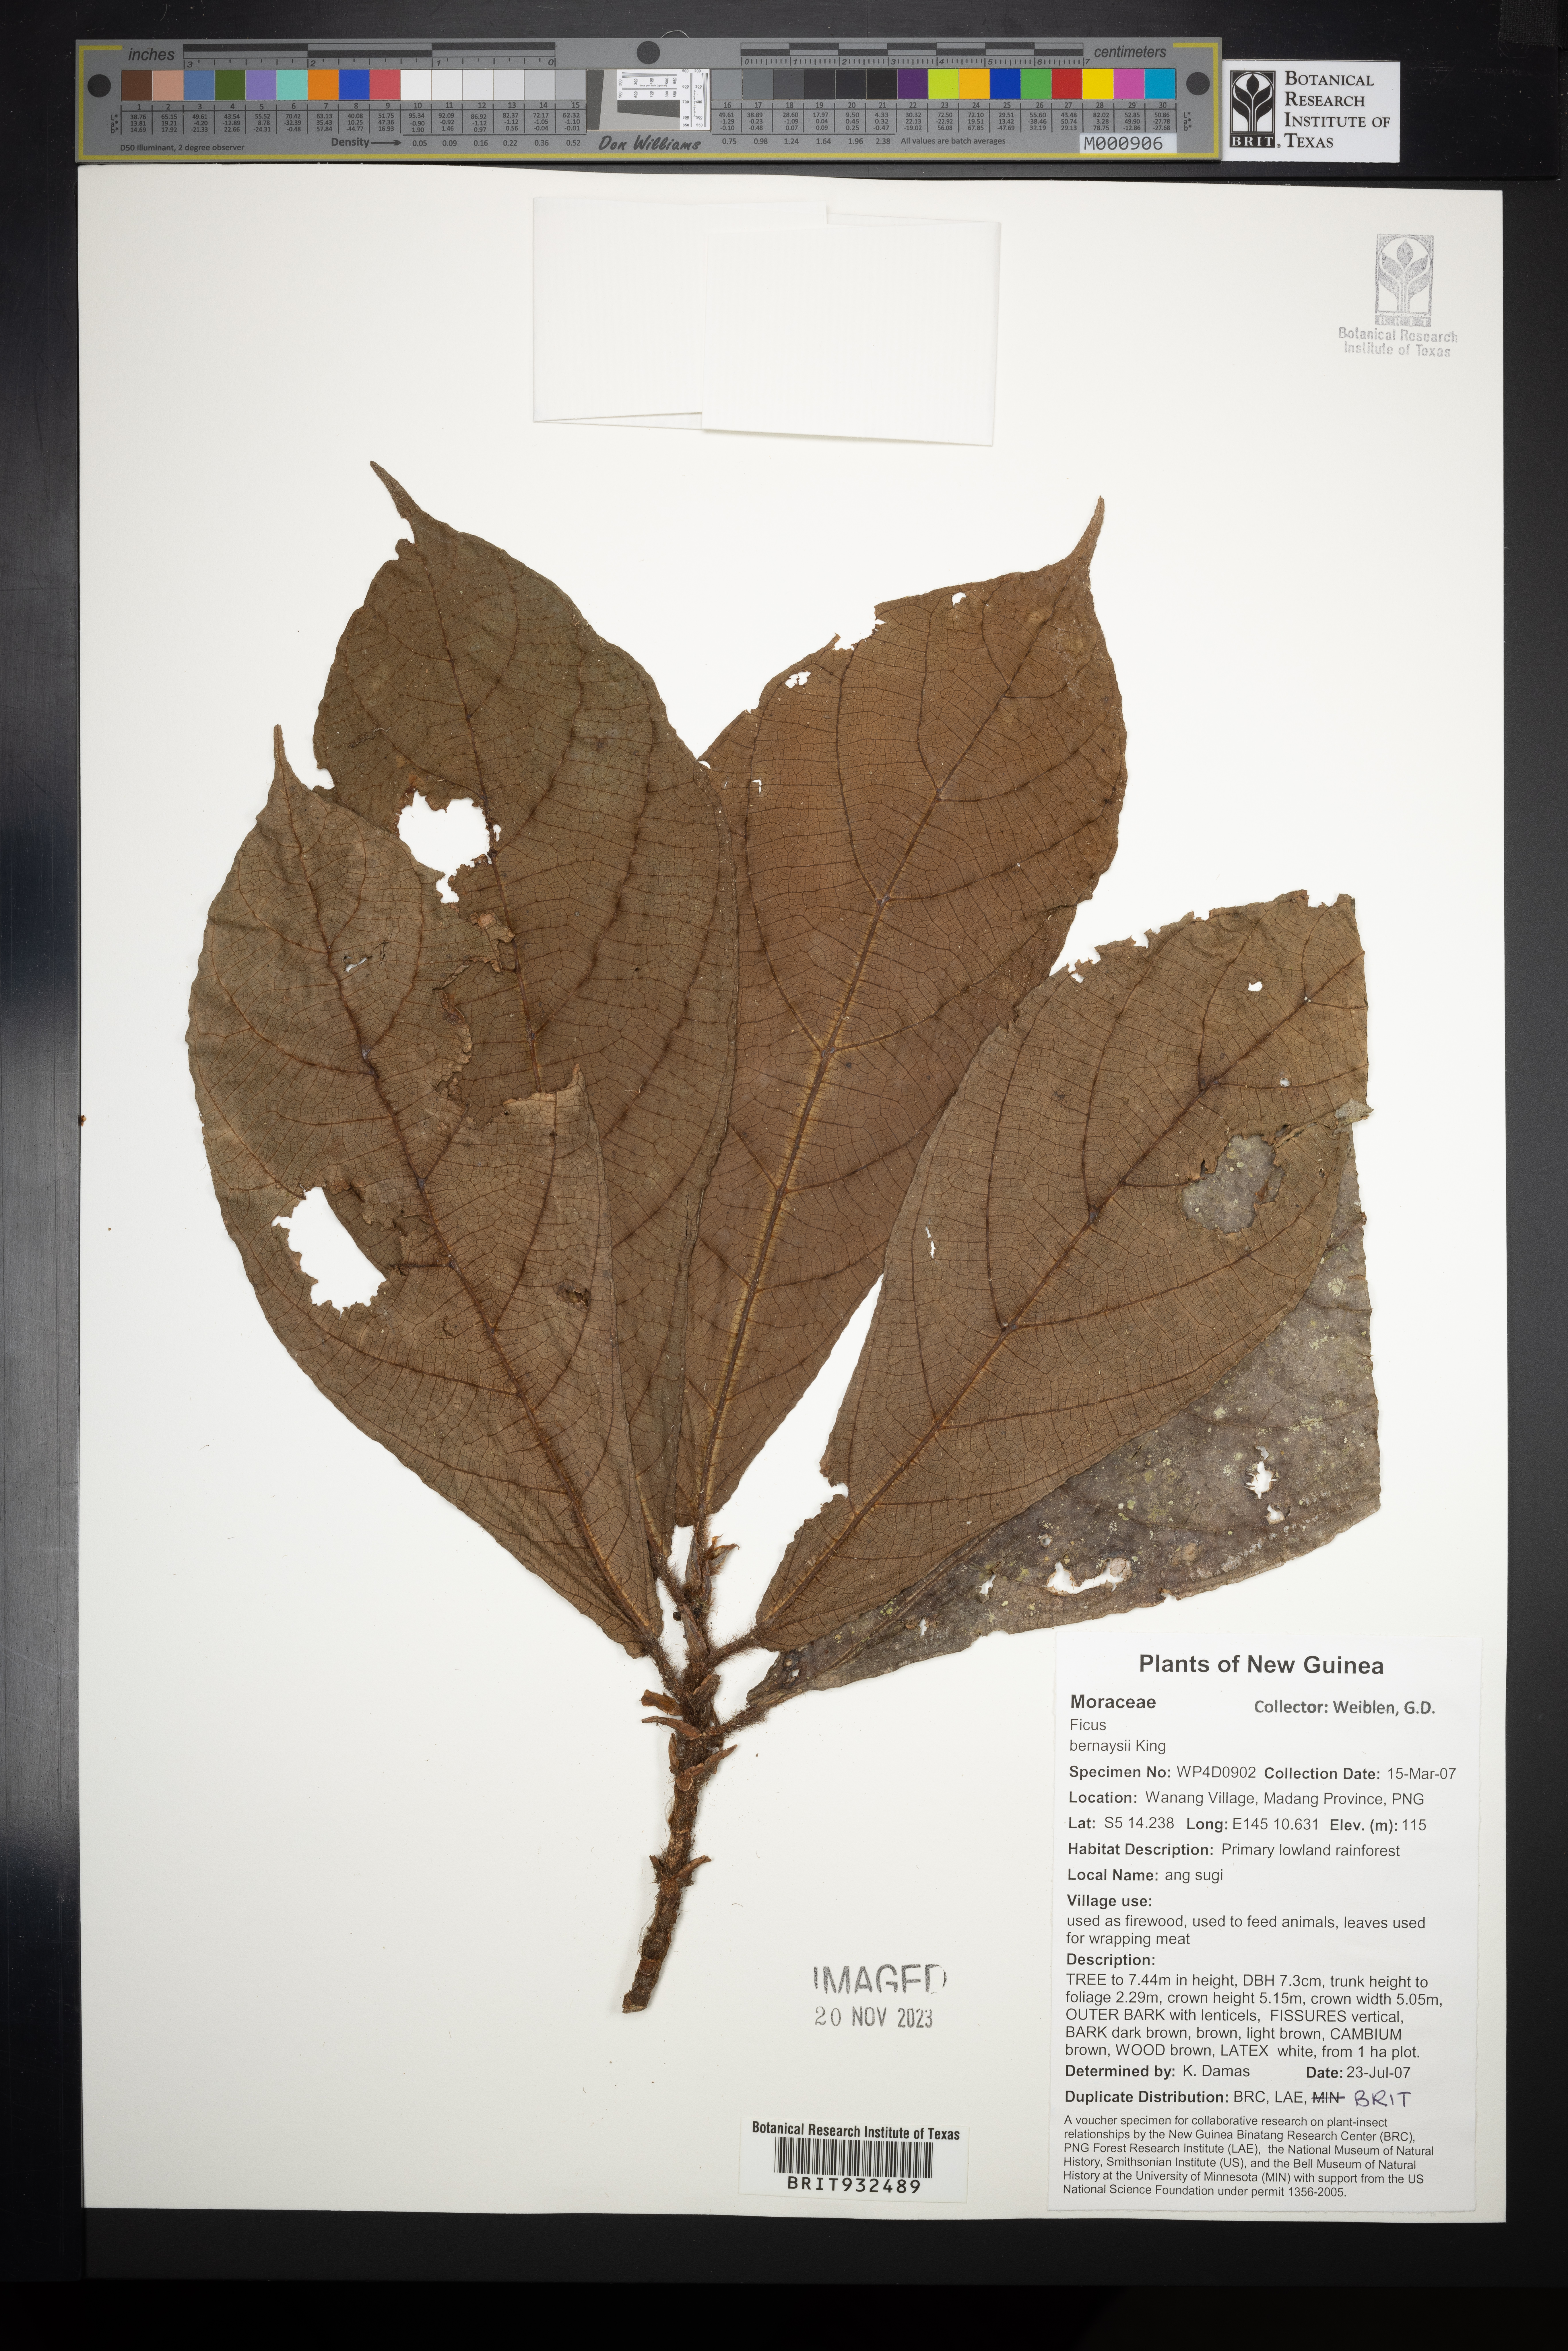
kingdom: Plantae
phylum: Tracheophyta
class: Magnoliopsida
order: Rosales
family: Moraceae
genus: Ficus
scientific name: Ficus bernaysii
